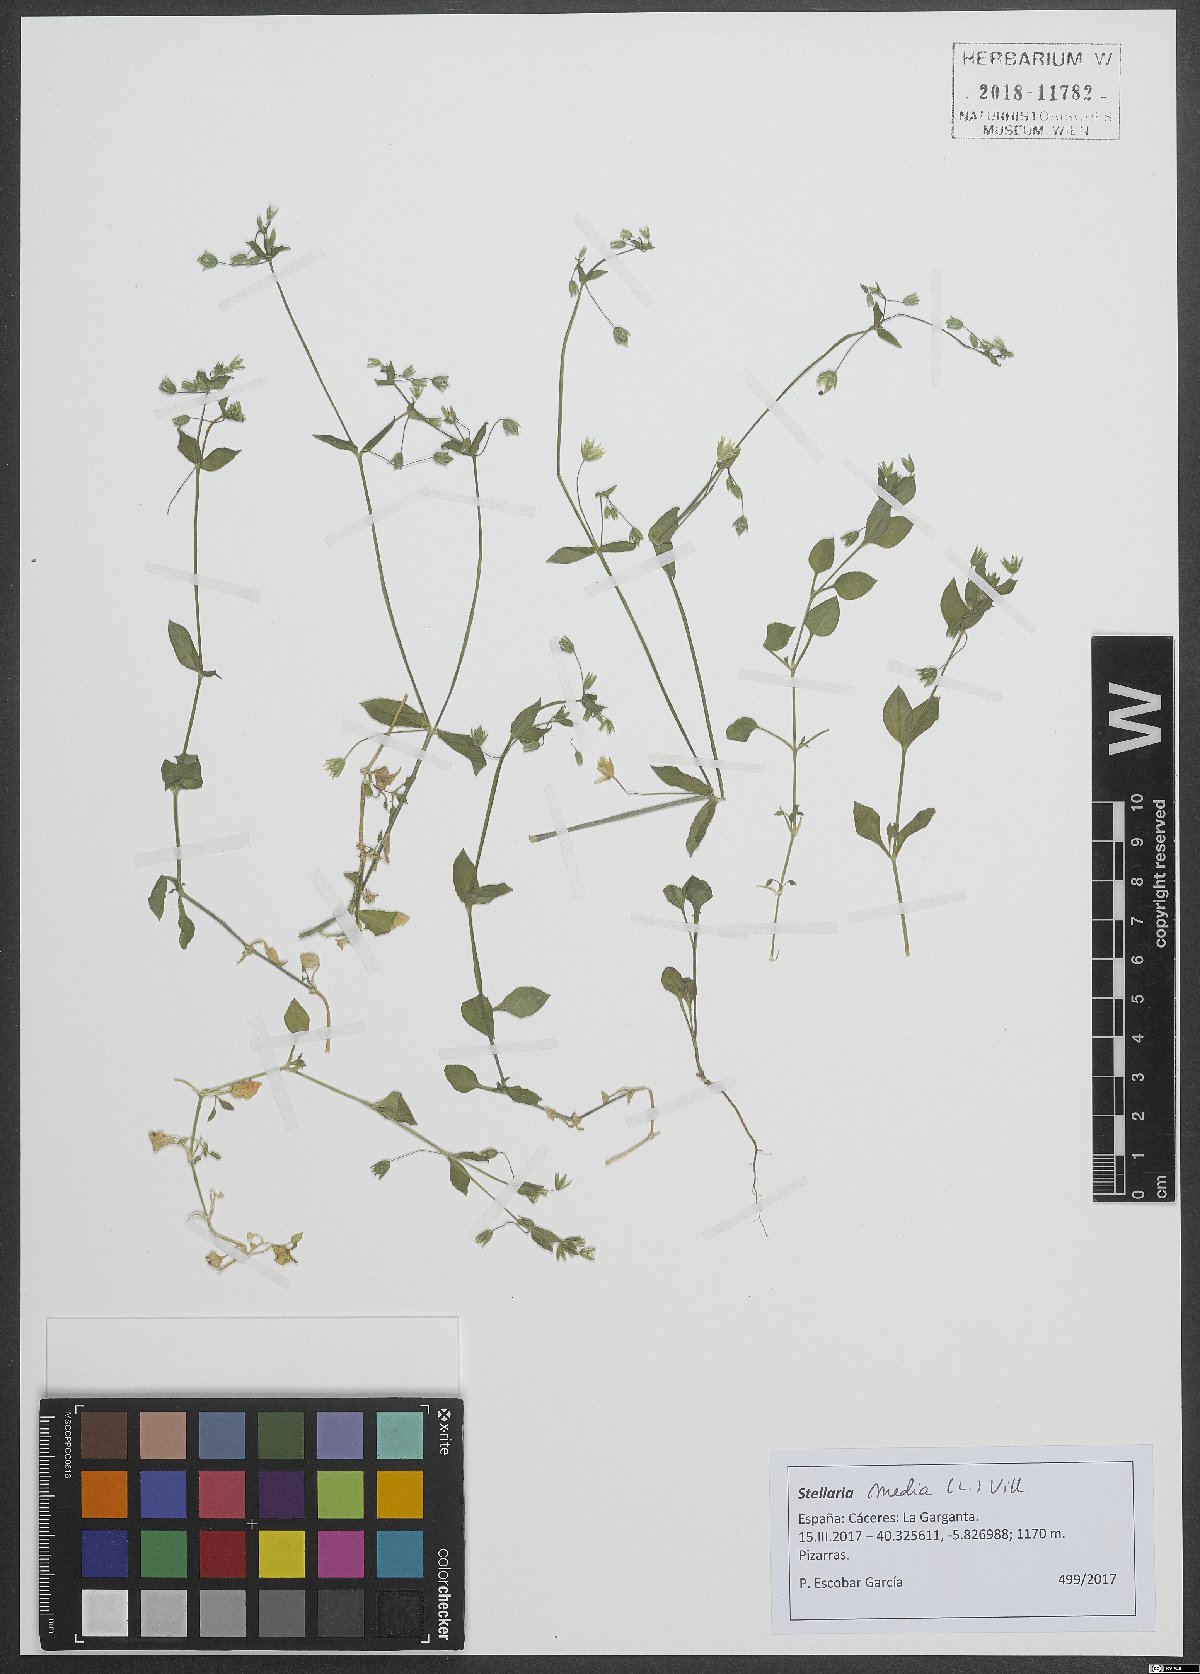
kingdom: Plantae
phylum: Tracheophyta
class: Magnoliopsida
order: Caryophyllales
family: Caryophyllaceae
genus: Stellaria
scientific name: Stellaria media
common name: Common chickweed
